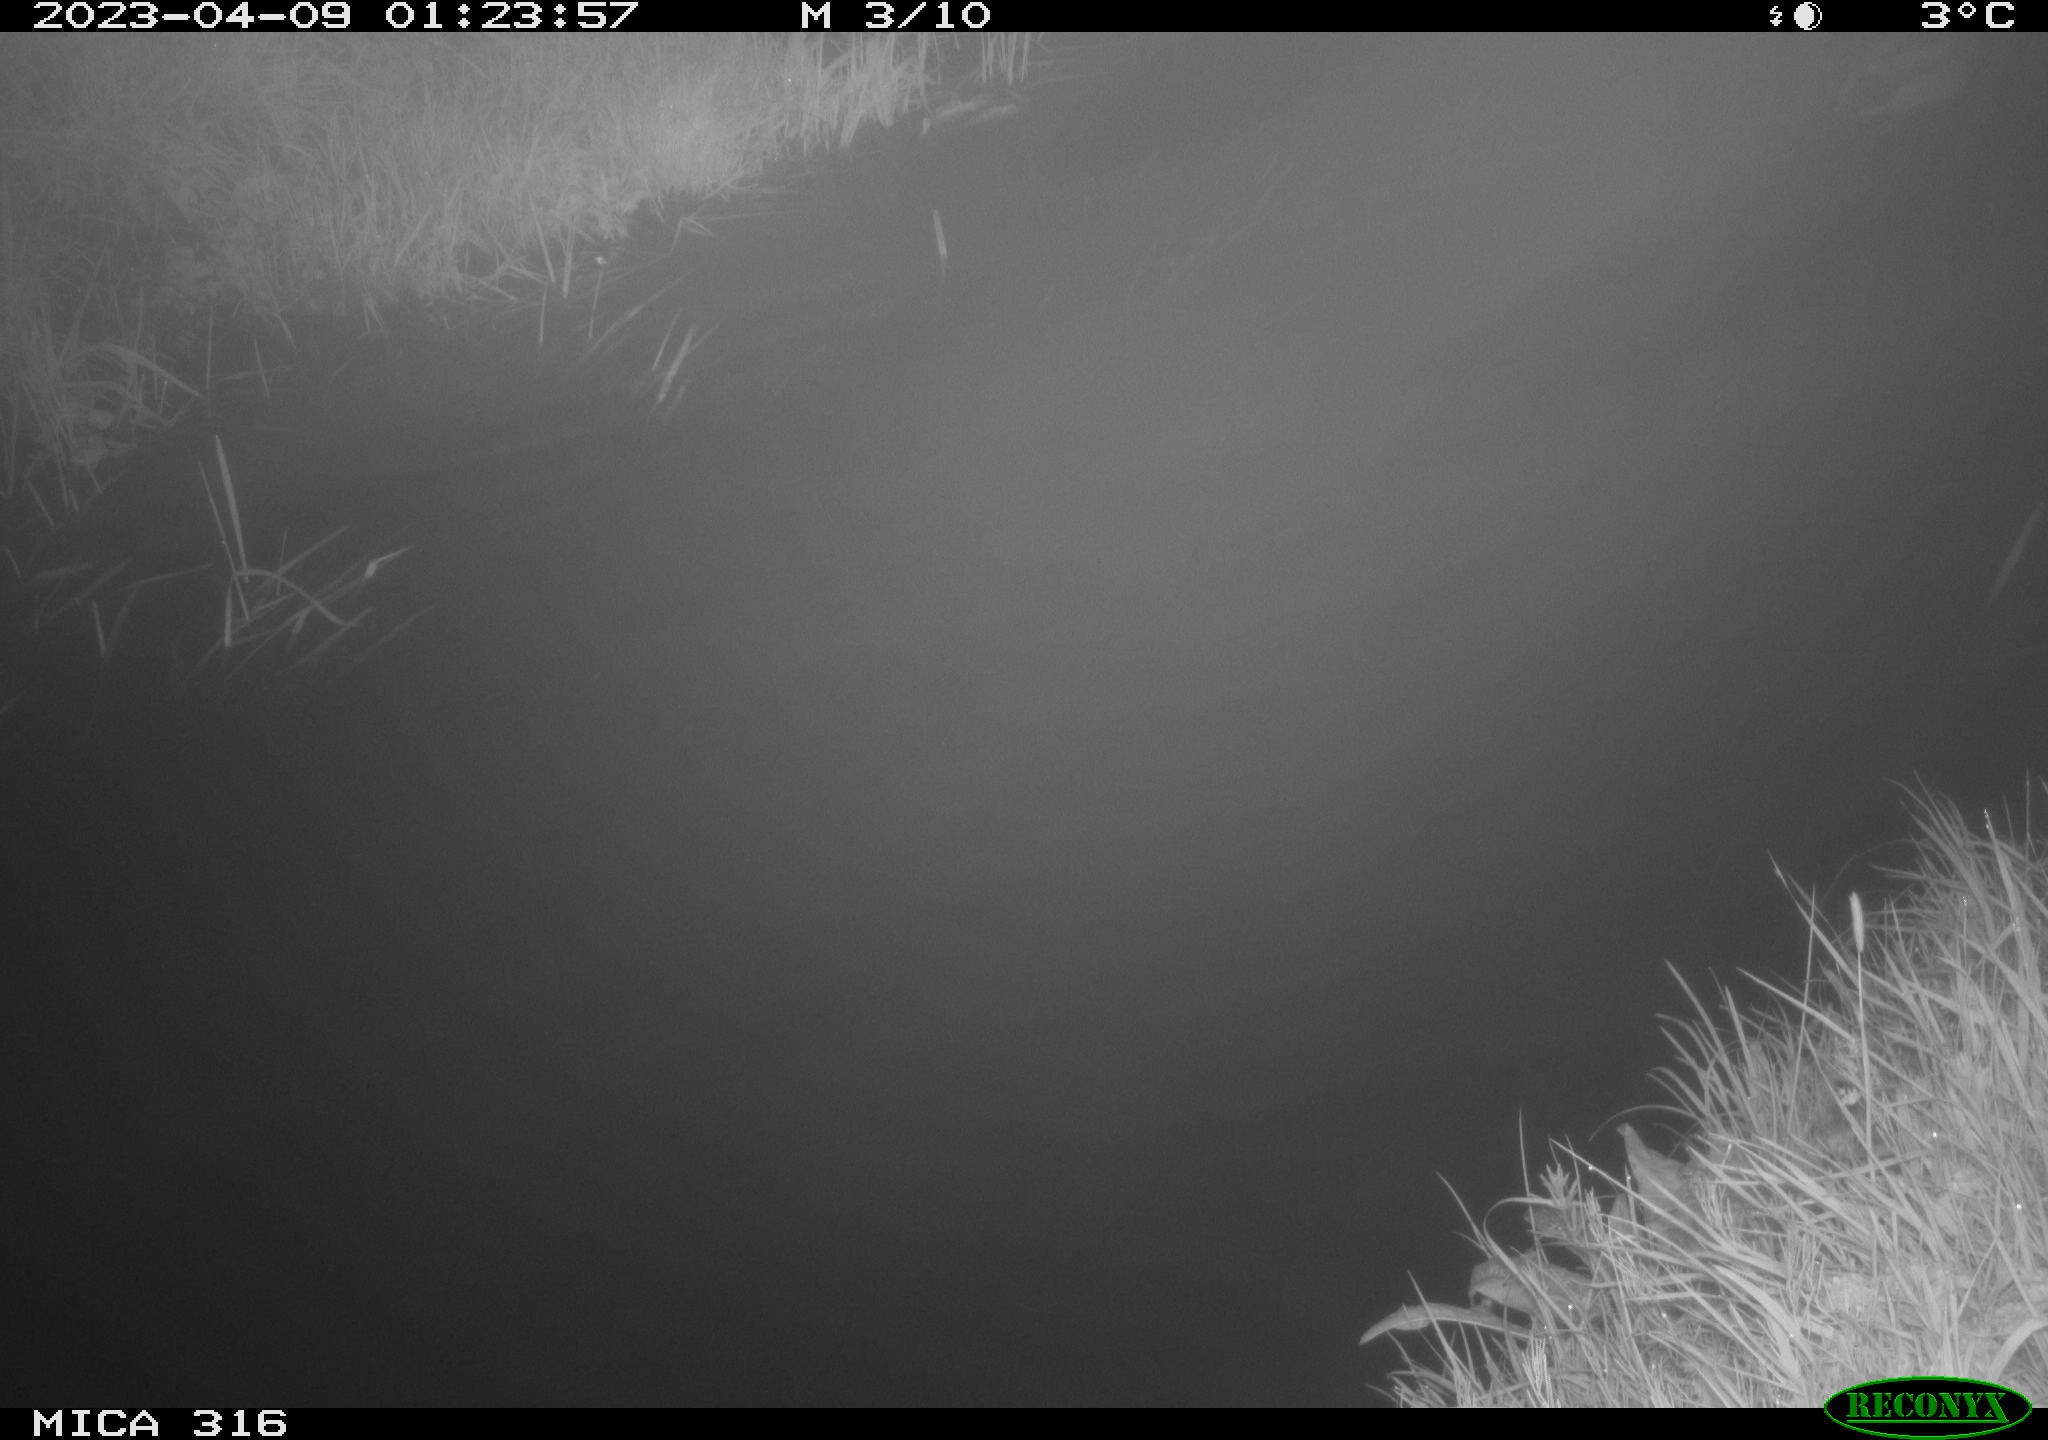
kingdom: Animalia
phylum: Chordata
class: Aves
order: Anseriformes
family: Anatidae
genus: Anas
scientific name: Anas
